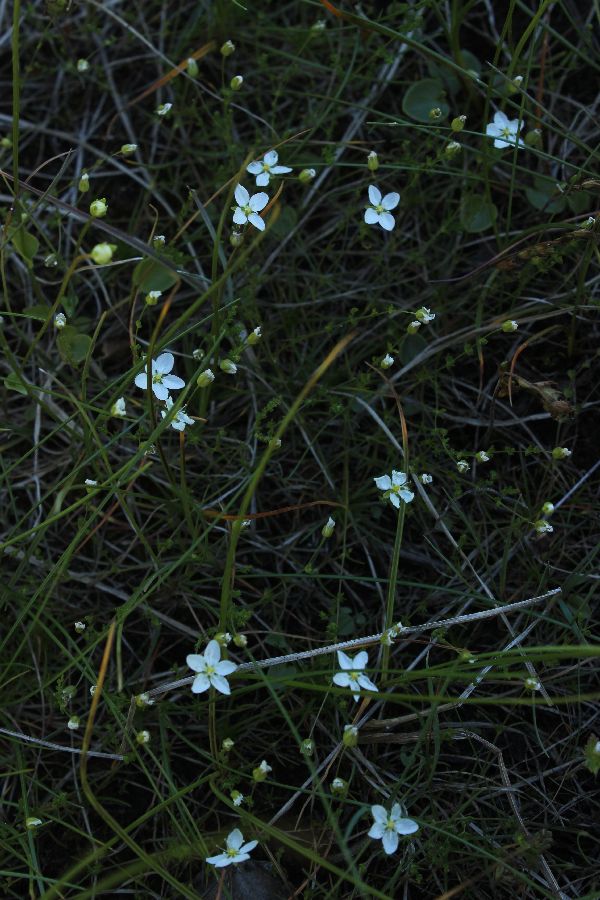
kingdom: Plantae
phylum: Tracheophyta
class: Magnoliopsida
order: Caryophyllales
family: Caryophyllaceae
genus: Sagina
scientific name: Sagina procumbens
